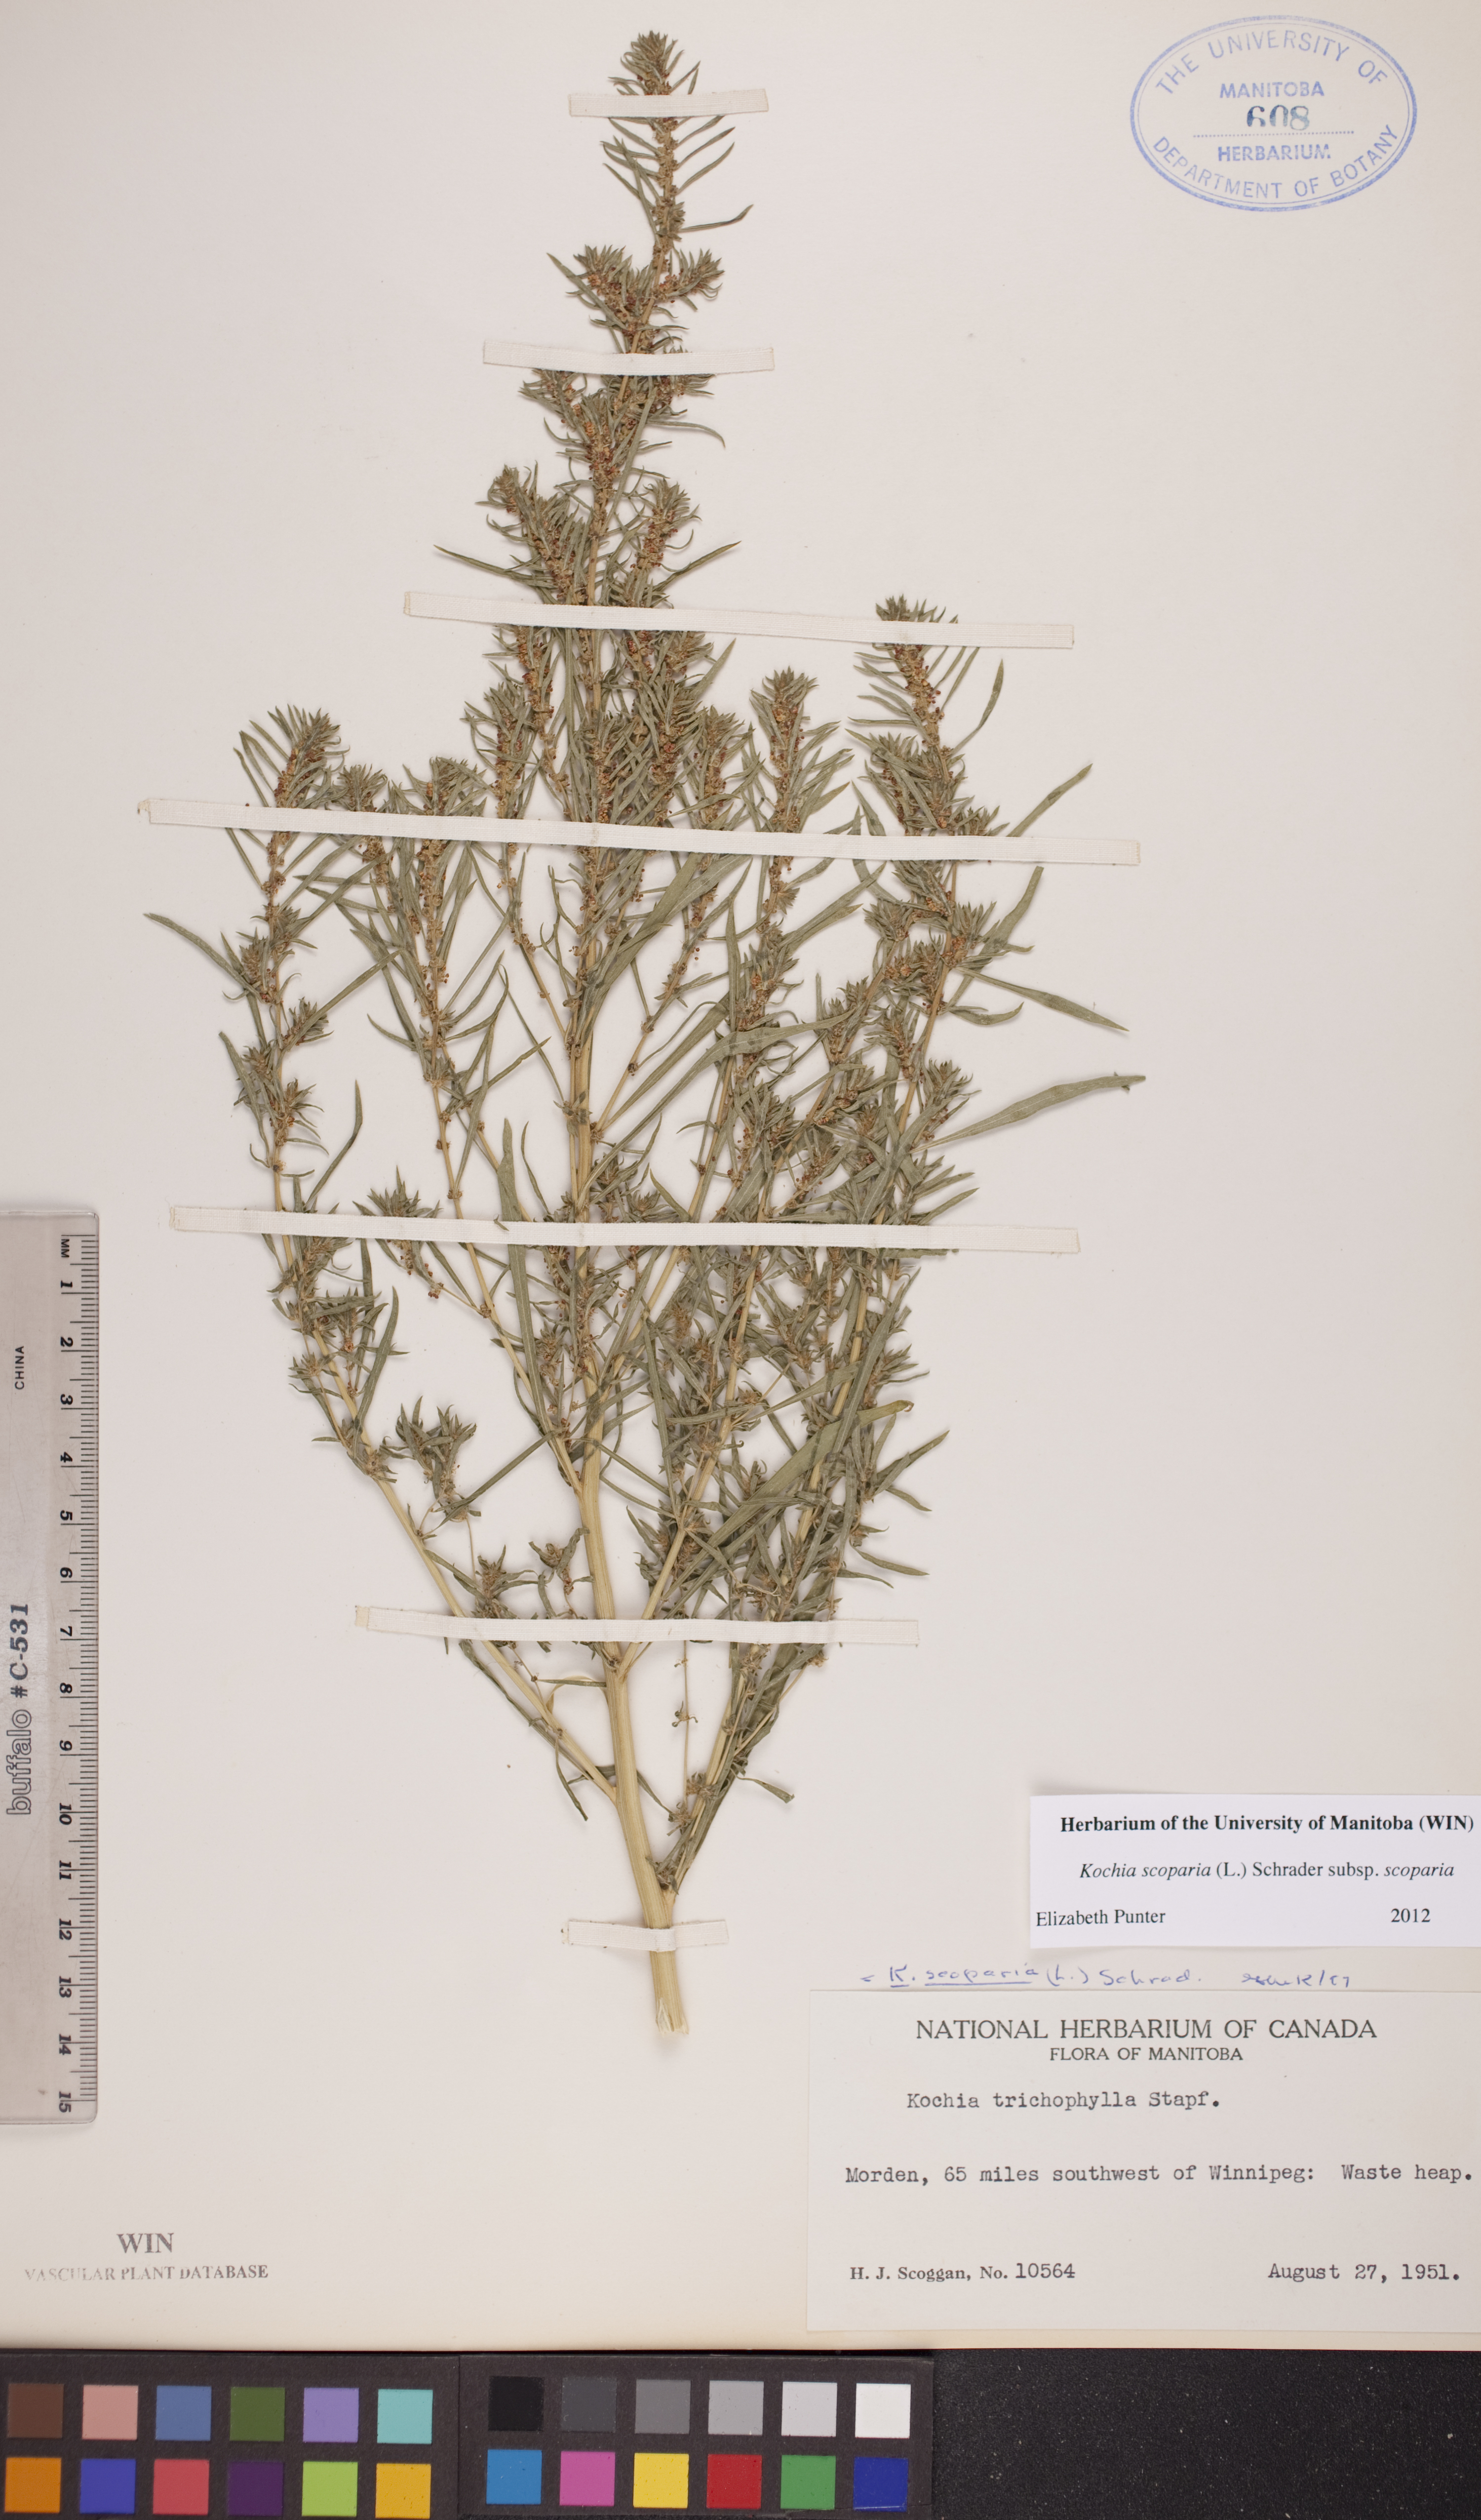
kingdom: Plantae
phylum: Tracheophyta
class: Magnoliopsida
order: Caryophyllales
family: Amaranthaceae
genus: Bassia
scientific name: Bassia scoparia
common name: Belvedere
